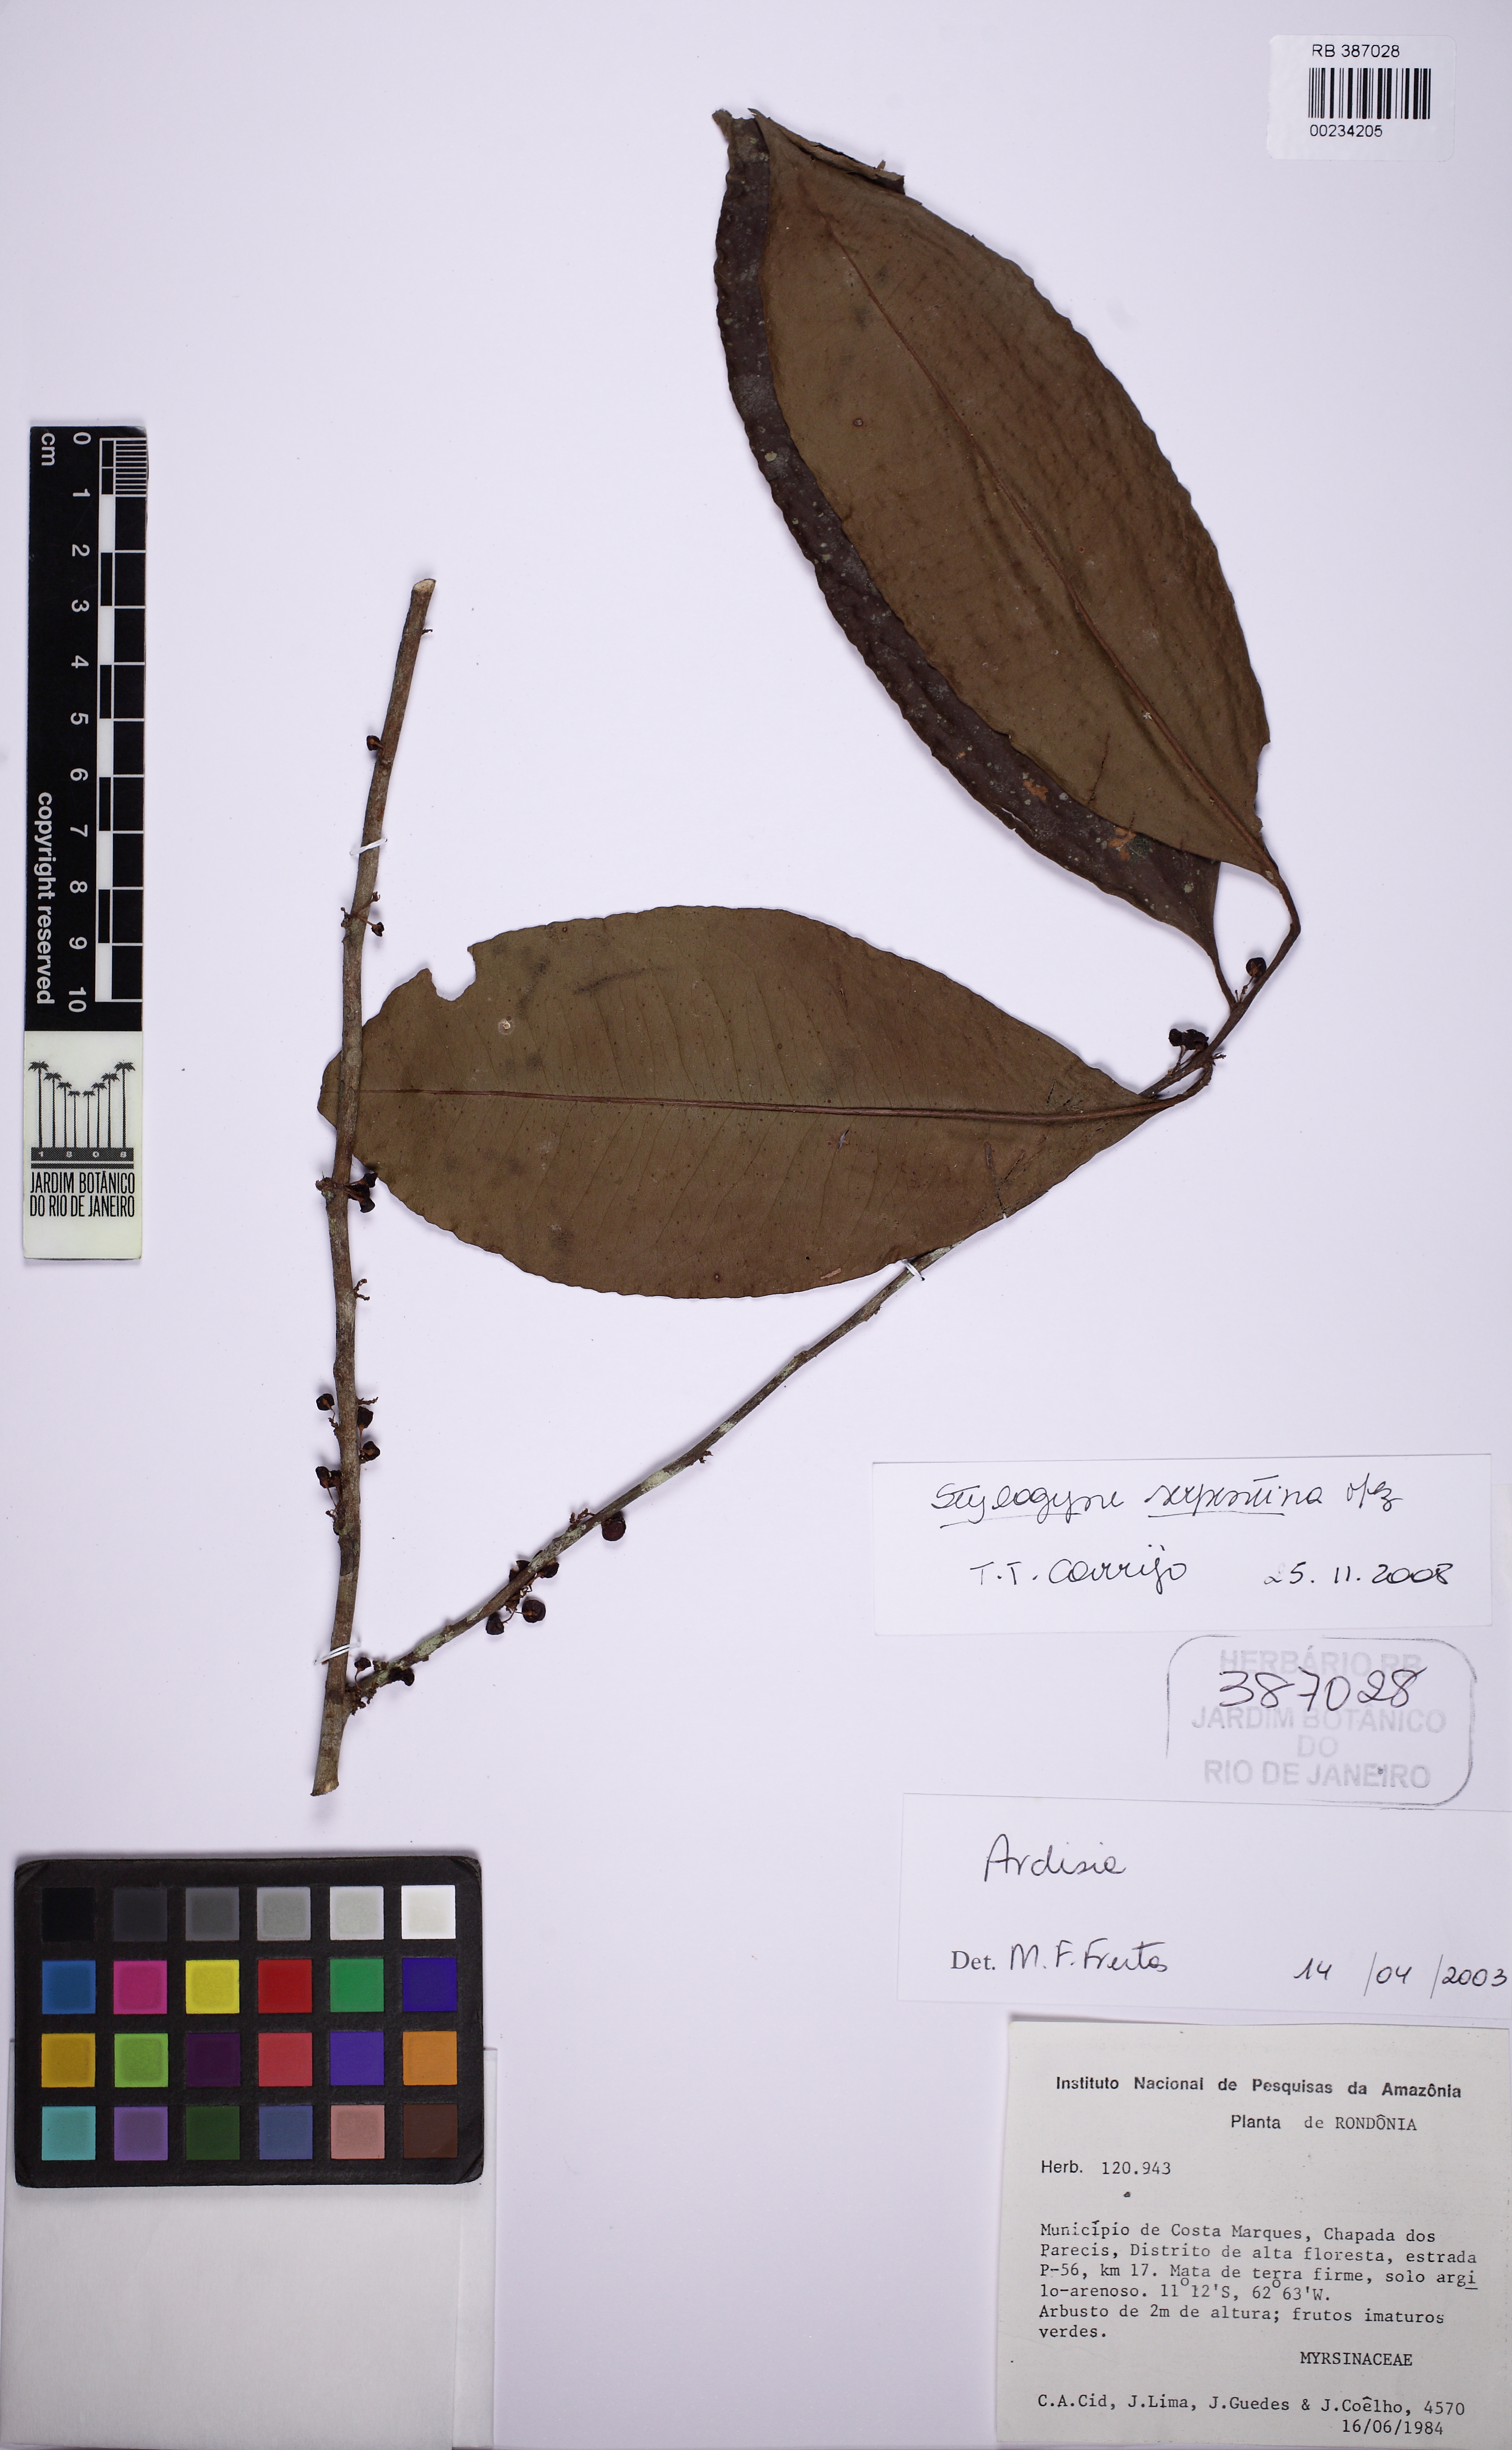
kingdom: Plantae
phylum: Tracheophyta
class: Magnoliopsida
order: Ericales
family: Primulaceae
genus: Stylogyne
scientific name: Stylogyne serpentina
